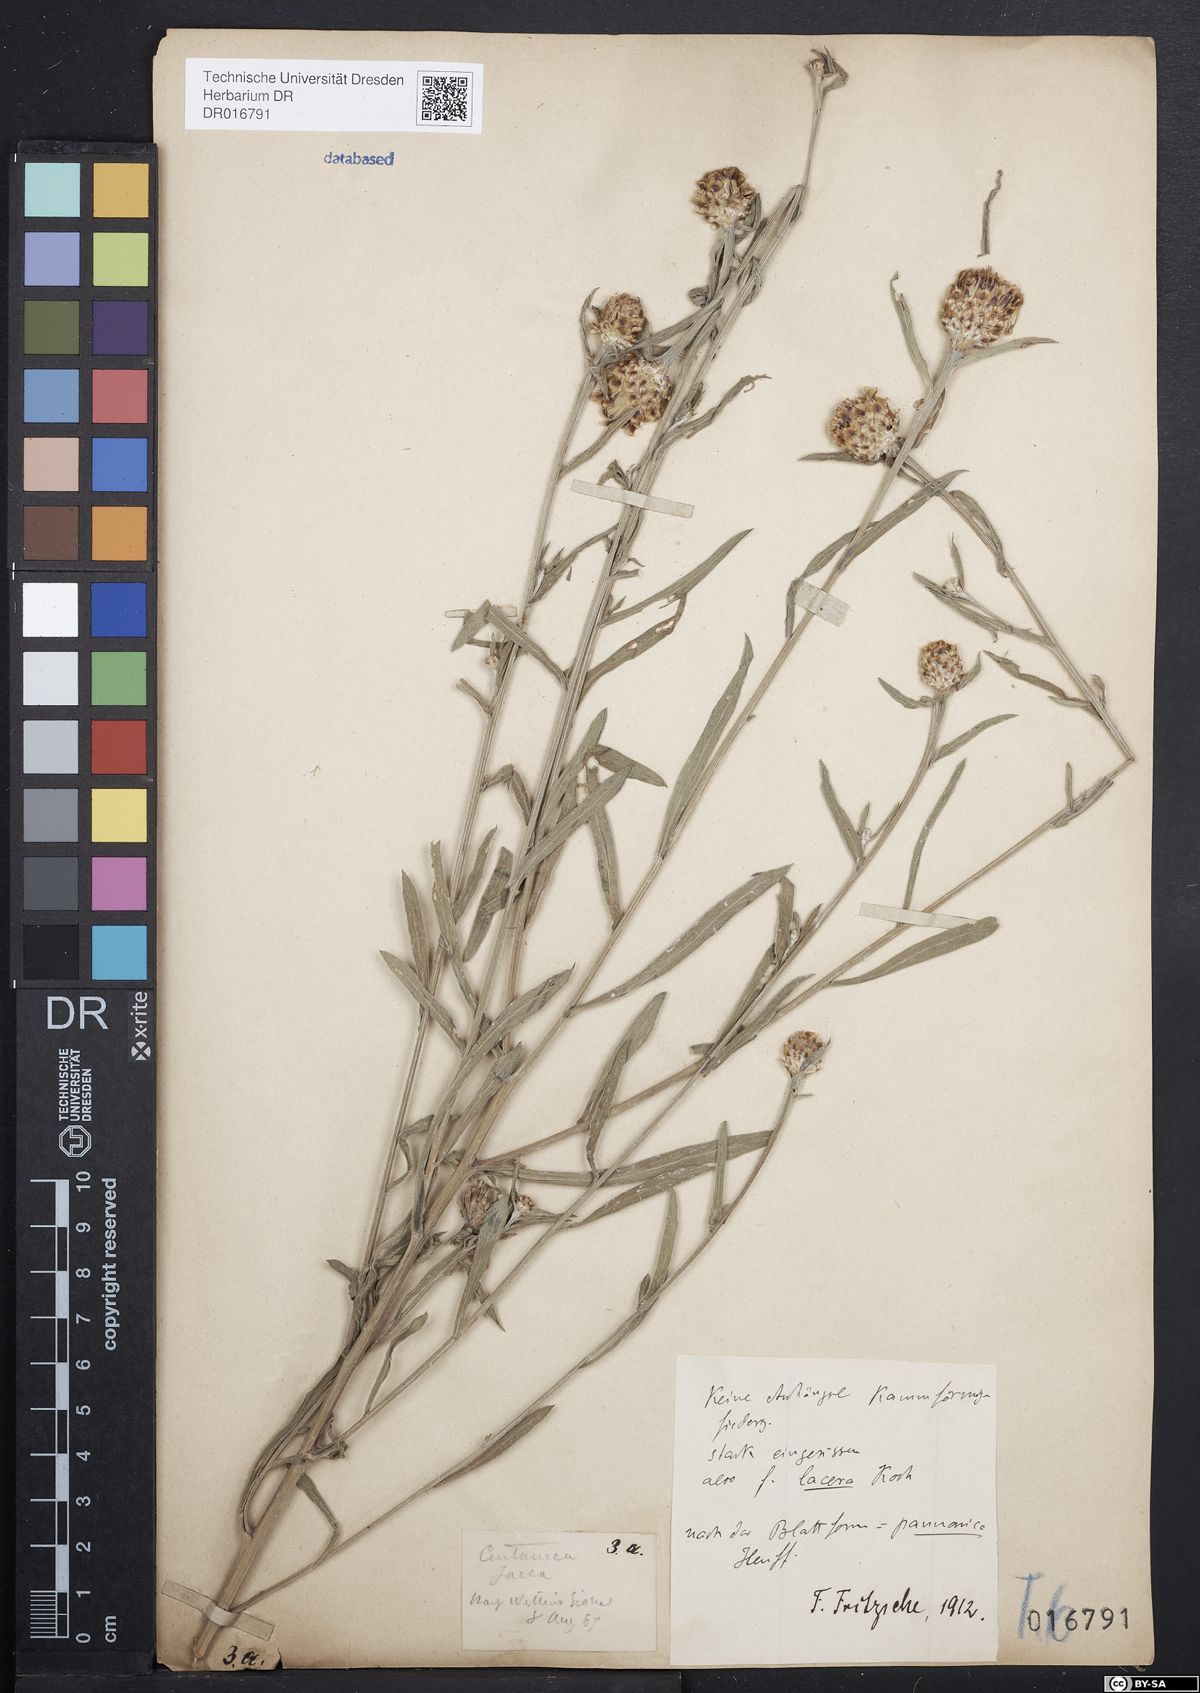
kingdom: Plantae
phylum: Tracheophyta
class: Magnoliopsida
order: Asterales
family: Asteraceae
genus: Centaurea
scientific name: Centaurea jacea
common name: Brown knapweed
